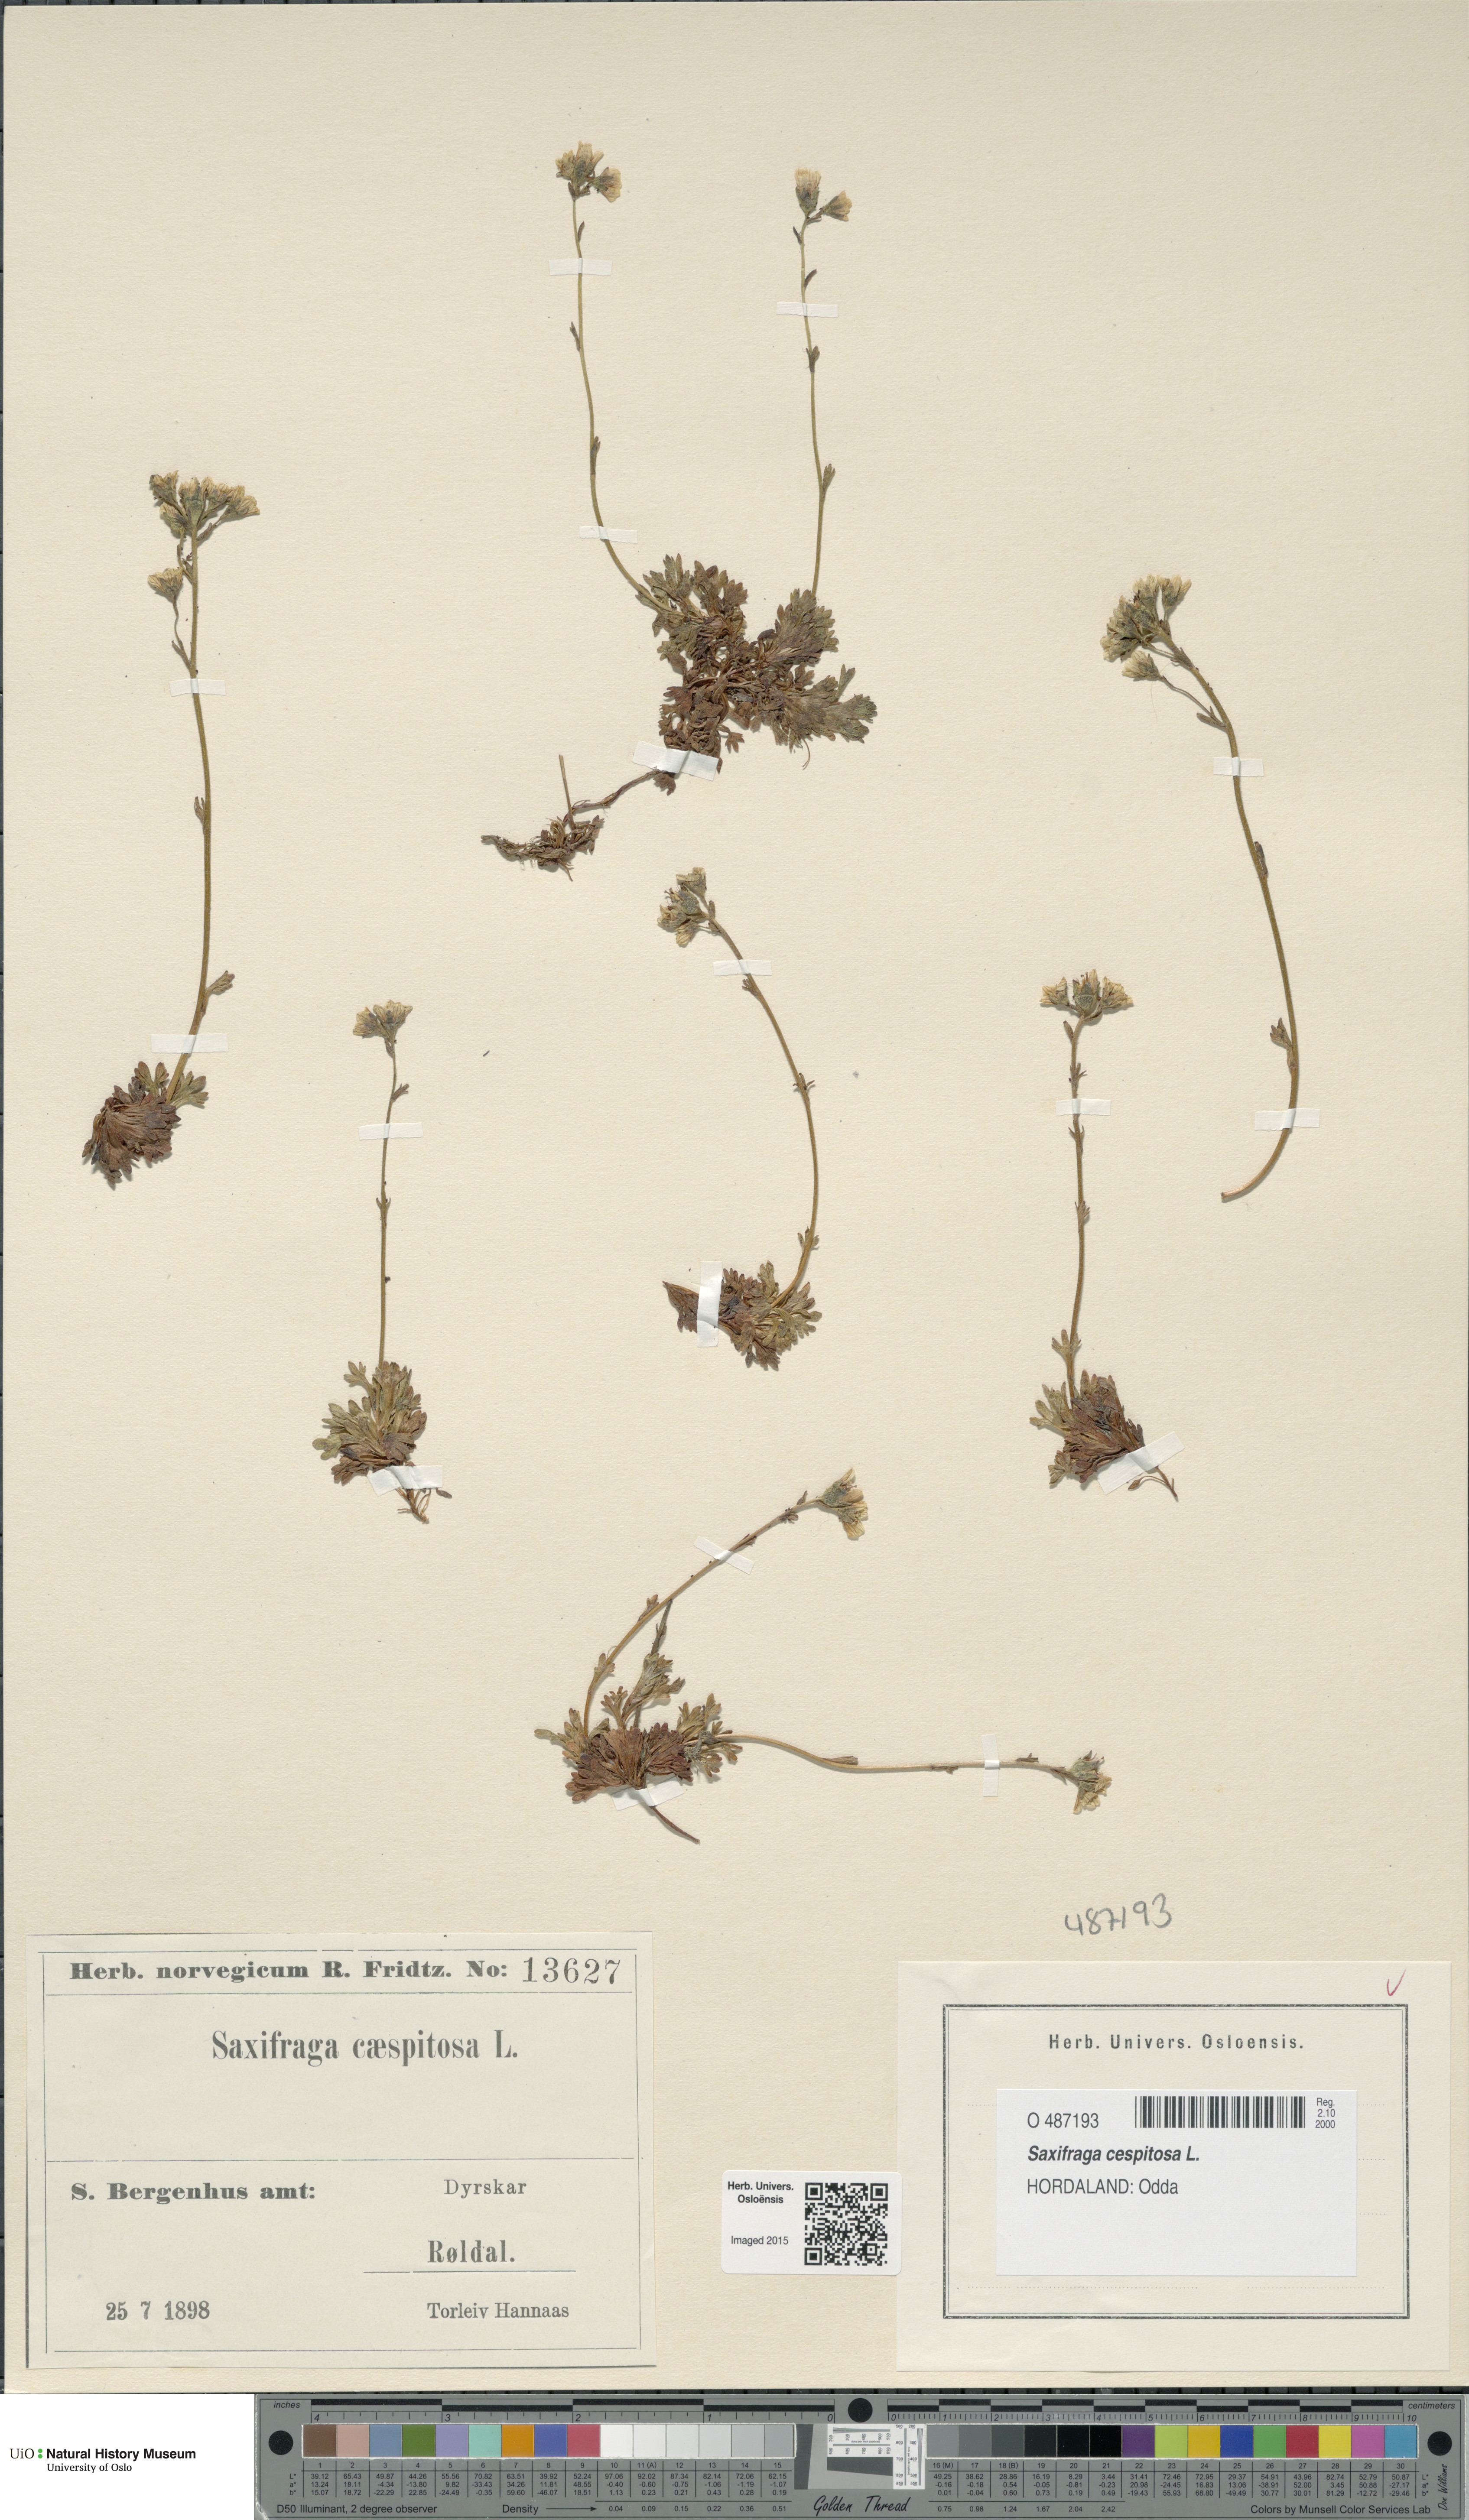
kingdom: Plantae
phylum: Tracheophyta
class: Magnoliopsida
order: Saxifragales
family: Saxifragaceae
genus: Saxifraga
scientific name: Saxifraga cespitosa
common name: Tufted saxifrage
